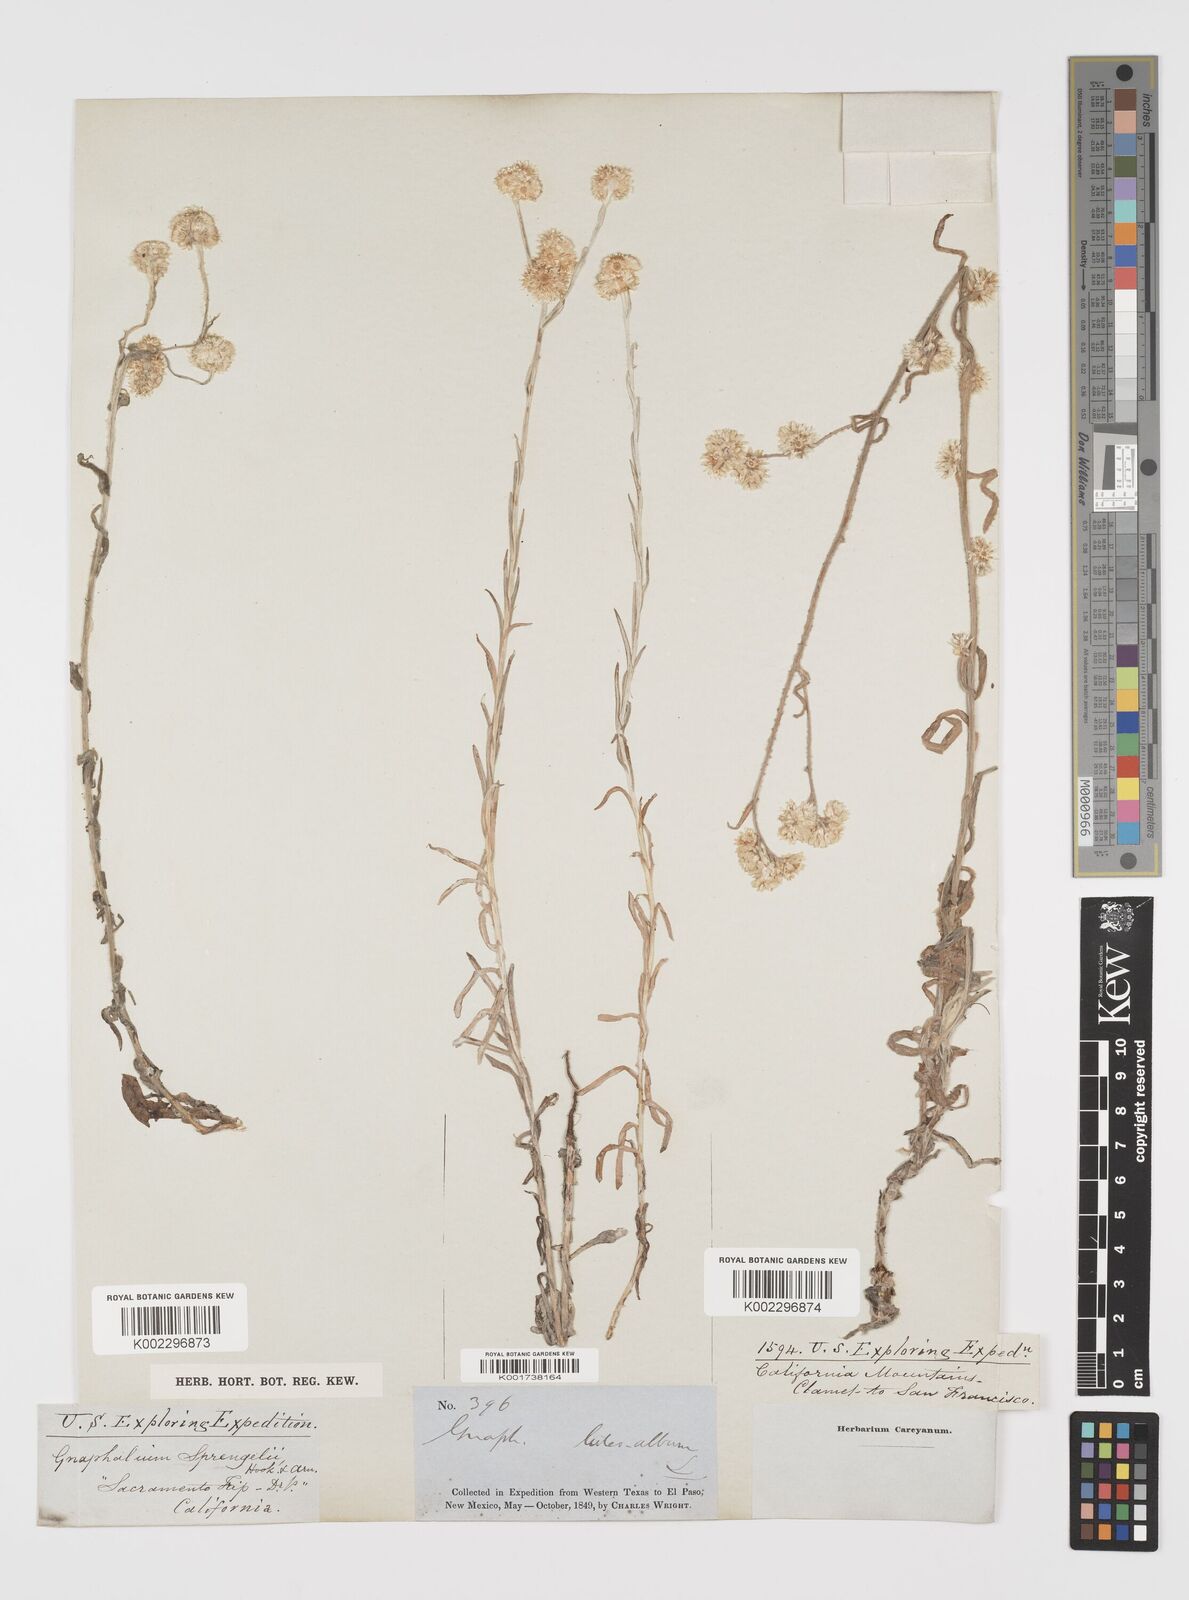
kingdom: Plantae
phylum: Tracheophyta
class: Magnoliopsida
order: Asterales
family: Asteraceae
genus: Helichrysum
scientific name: Helichrysum luteoalbum
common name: Daisy
